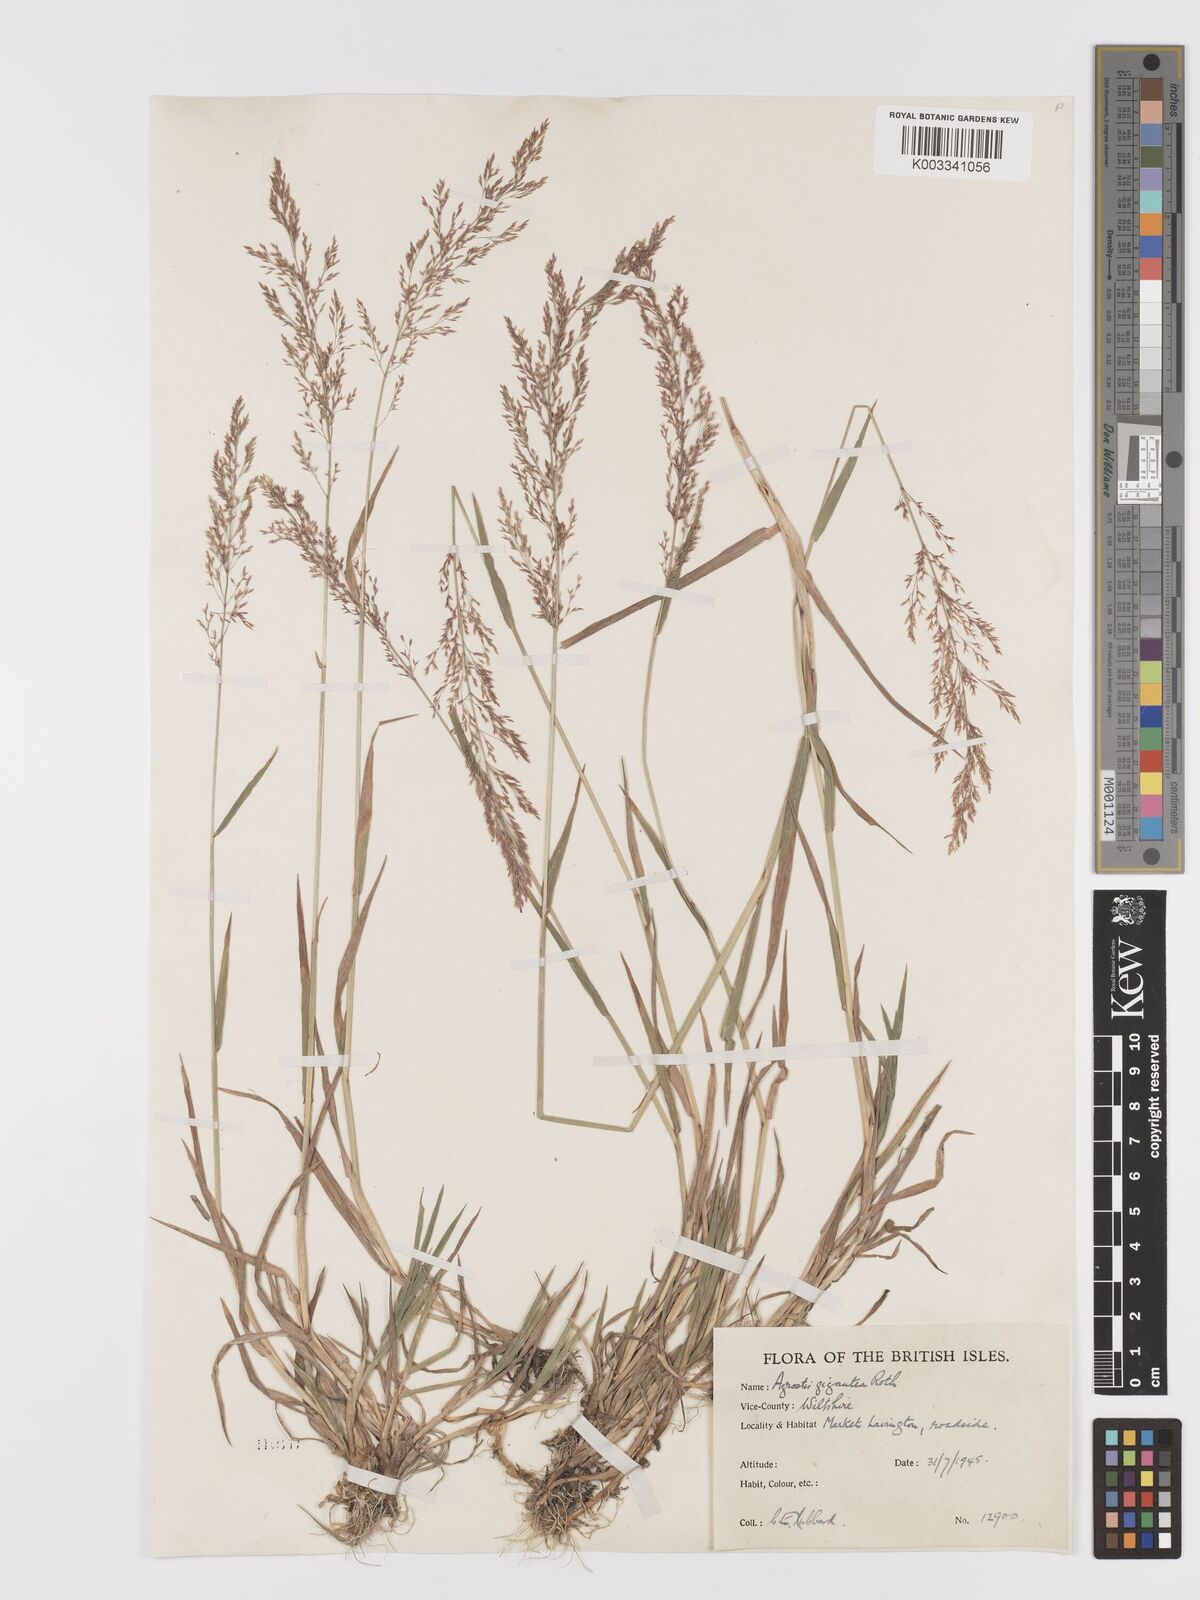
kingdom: Plantae
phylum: Tracheophyta
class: Liliopsida
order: Poales
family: Poaceae
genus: Agrostis
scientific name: Agrostis gigantea
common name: Black bent
